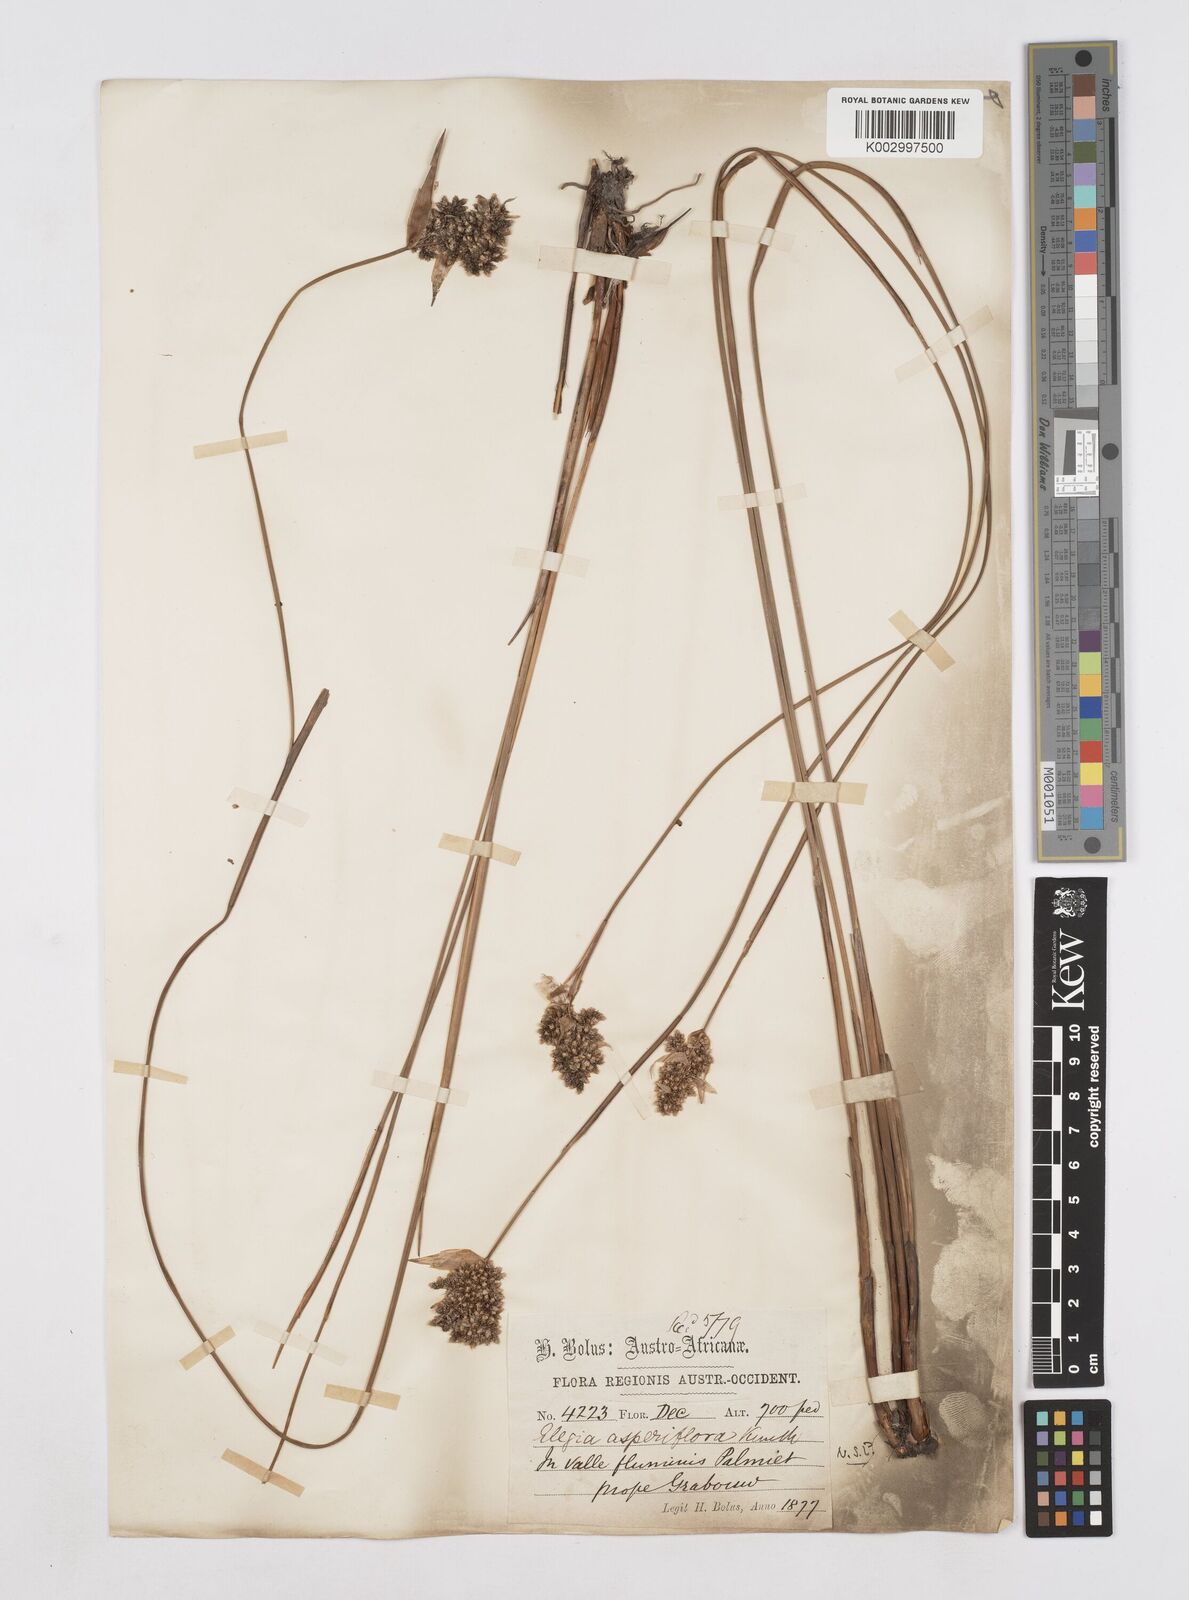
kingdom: Plantae
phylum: Tracheophyta
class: Liliopsida
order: Poales
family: Restionaceae
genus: Elegia
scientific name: Elegia asperiflora
